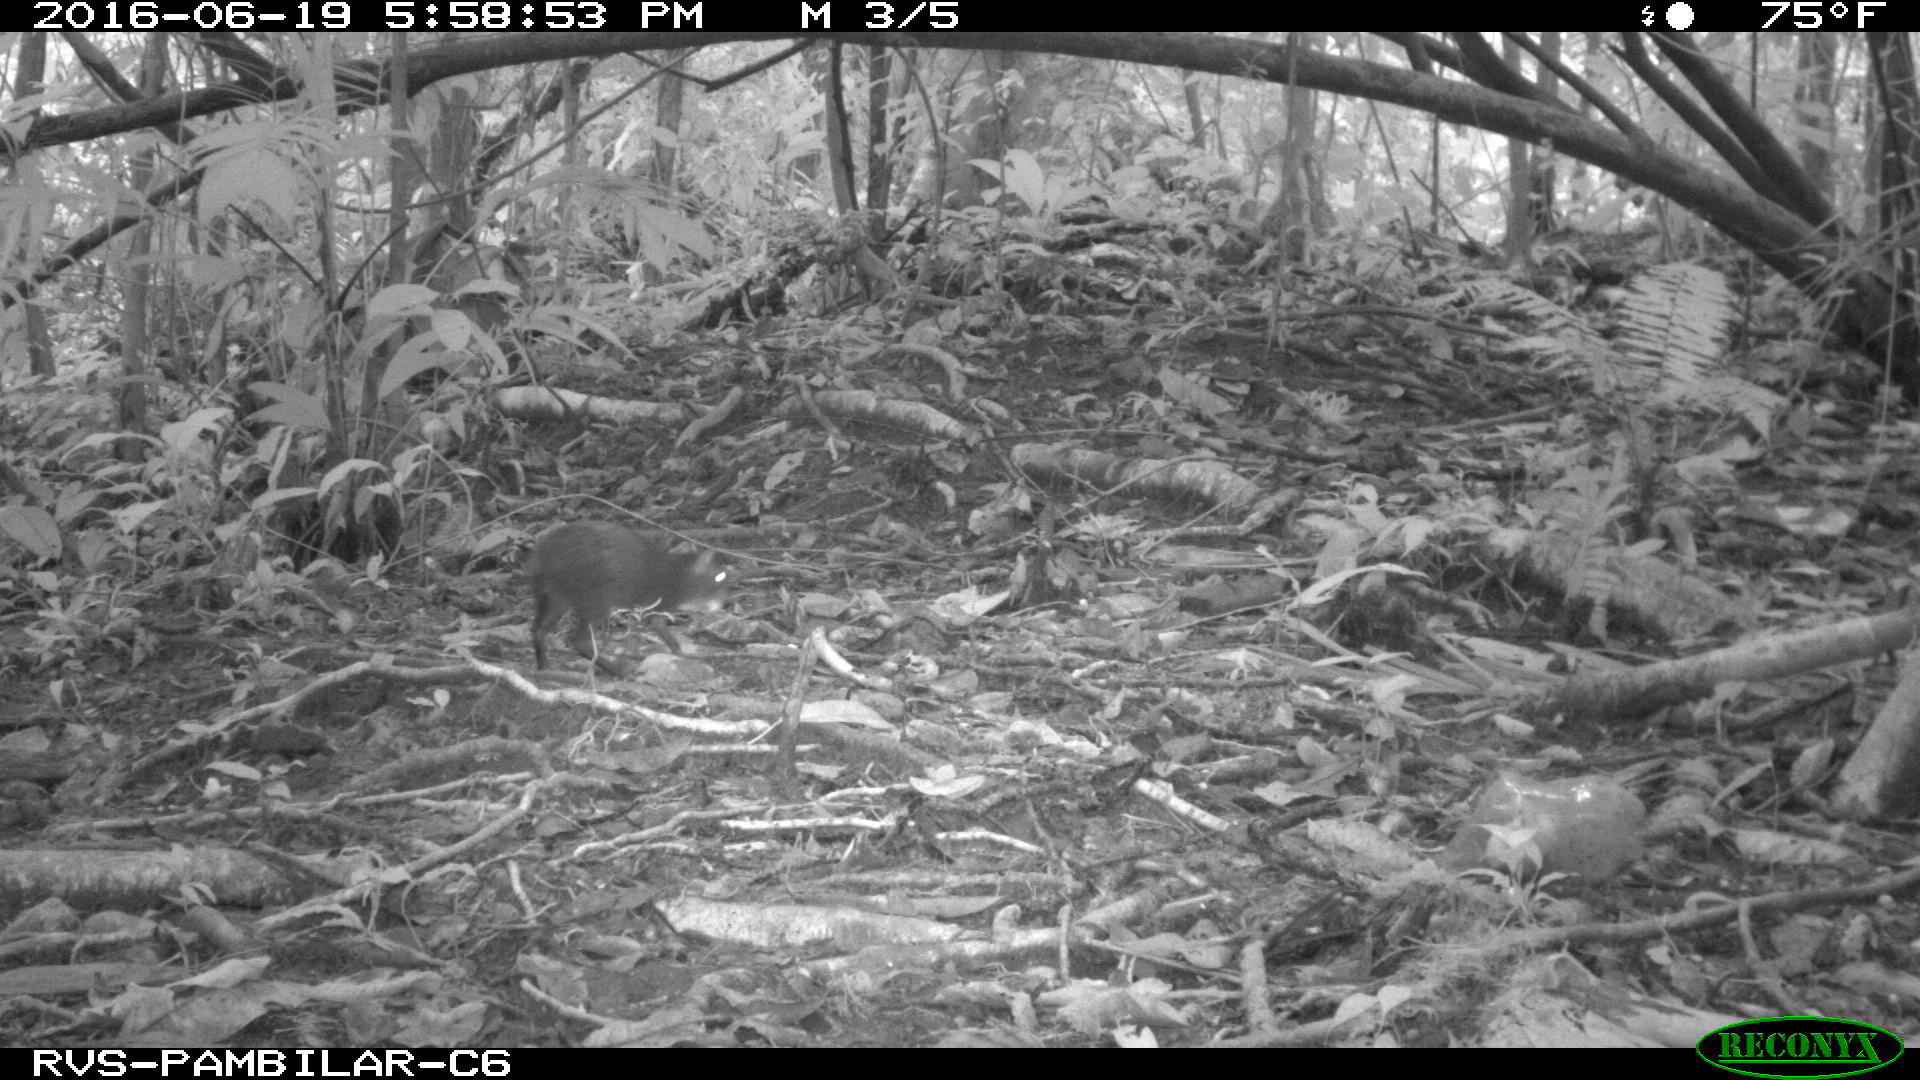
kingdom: Animalia
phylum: Chordata
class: Mammalia
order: Rodentia
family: Dasyproctidae
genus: Dasyprocta
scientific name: Dasyprocta punctata
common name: Central american agouti
